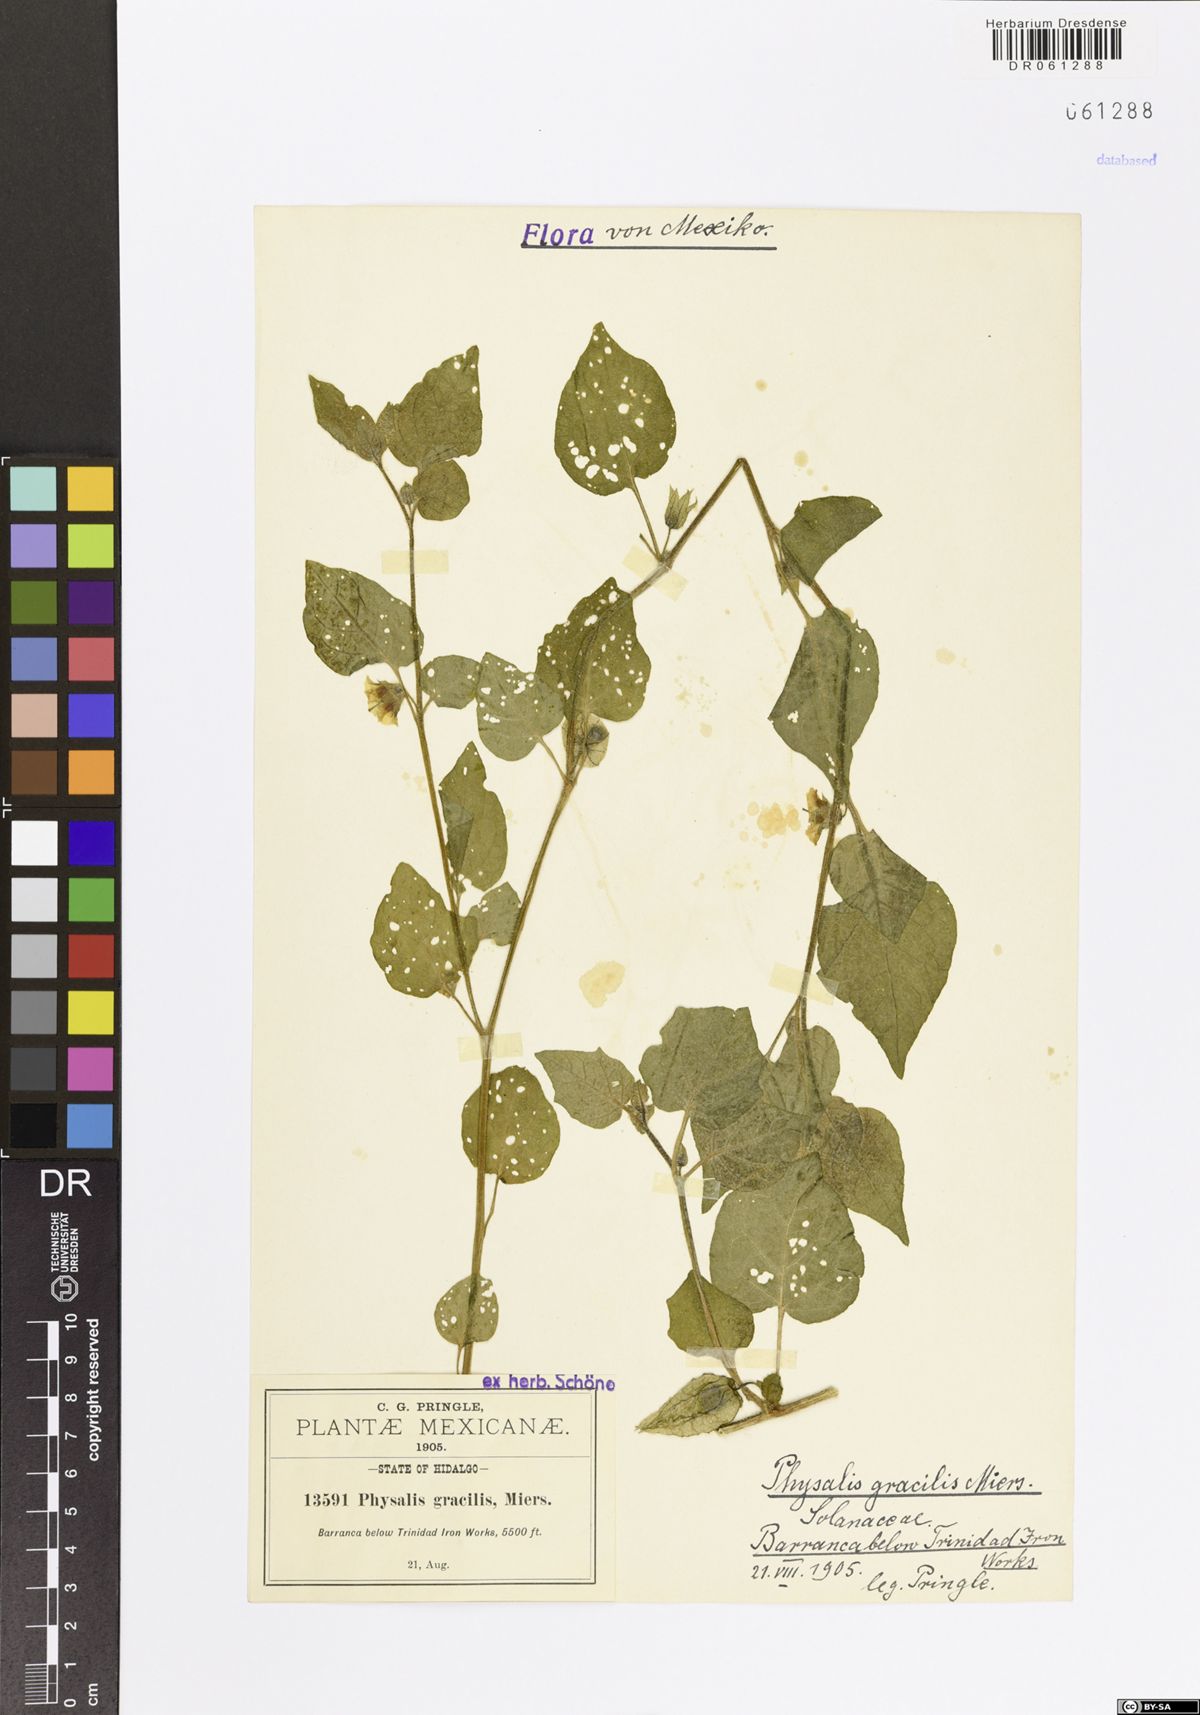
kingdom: Plantae
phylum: Tracheophyta
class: Magnoliopsida
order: Solanales
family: Solanaceae
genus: Physalis
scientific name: Physalis gracilis
